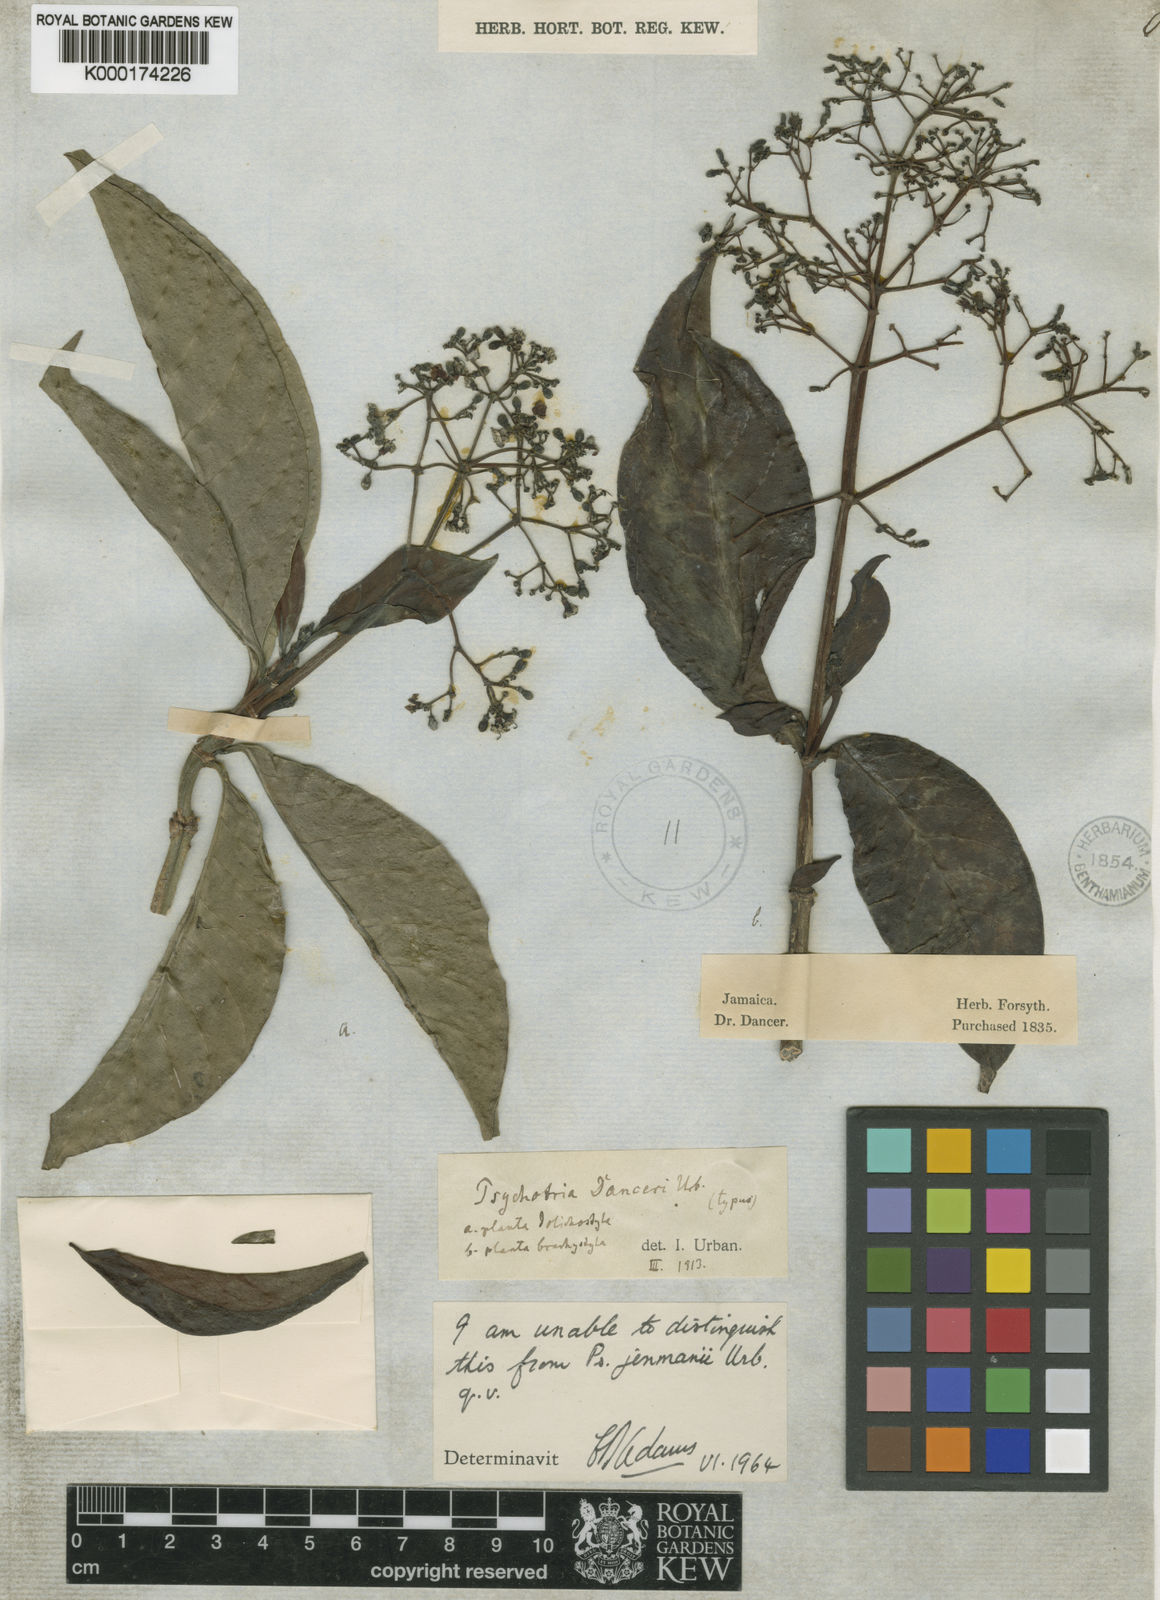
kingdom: Plantae
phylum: Tracheophyta
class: Magnoliopsida
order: Gentianales
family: Rubiaceae
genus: Psychotria
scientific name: Psychotria dura
